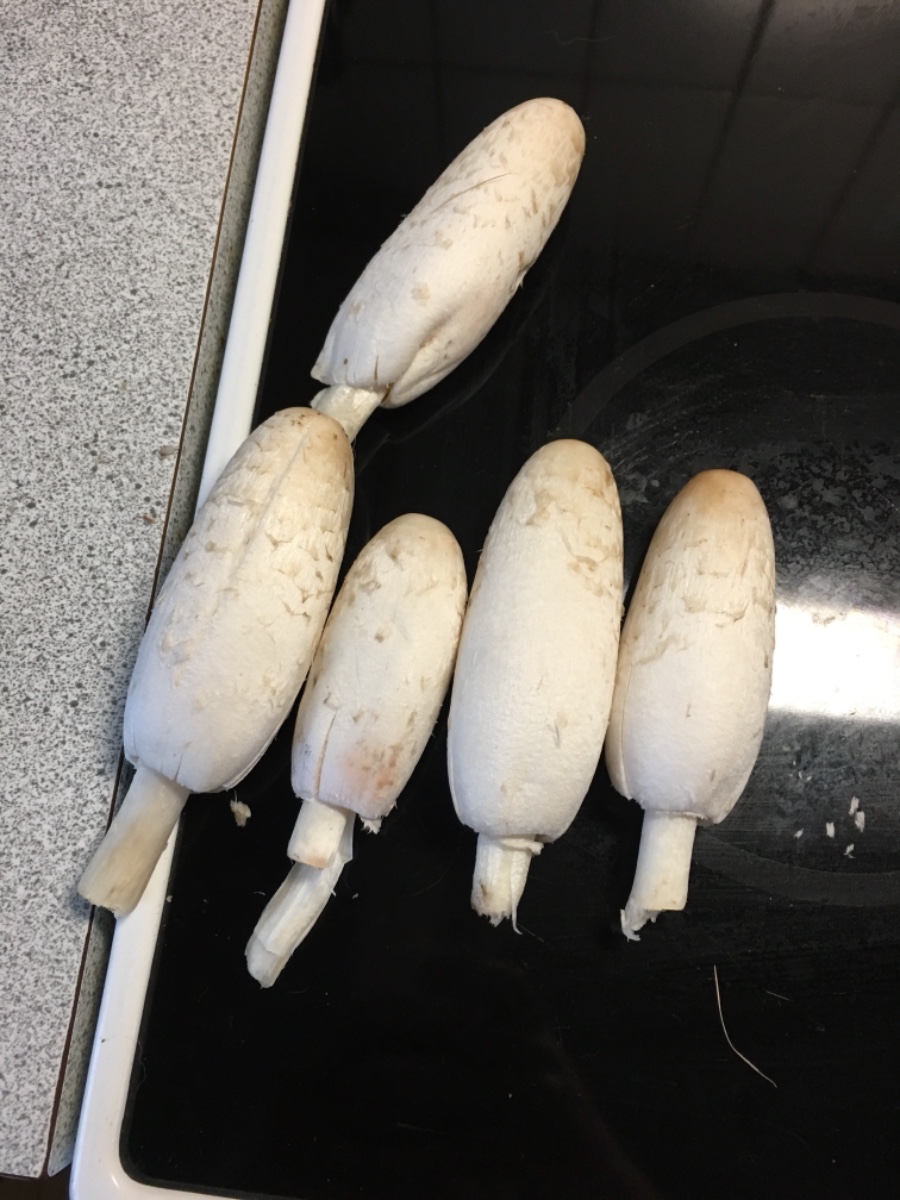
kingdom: Fungi
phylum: Basidiomycota
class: Agaricomycetes
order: Agaricales
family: Agaricaceae
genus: Coprinus
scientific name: Coprinus comatus
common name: stor parykhat
